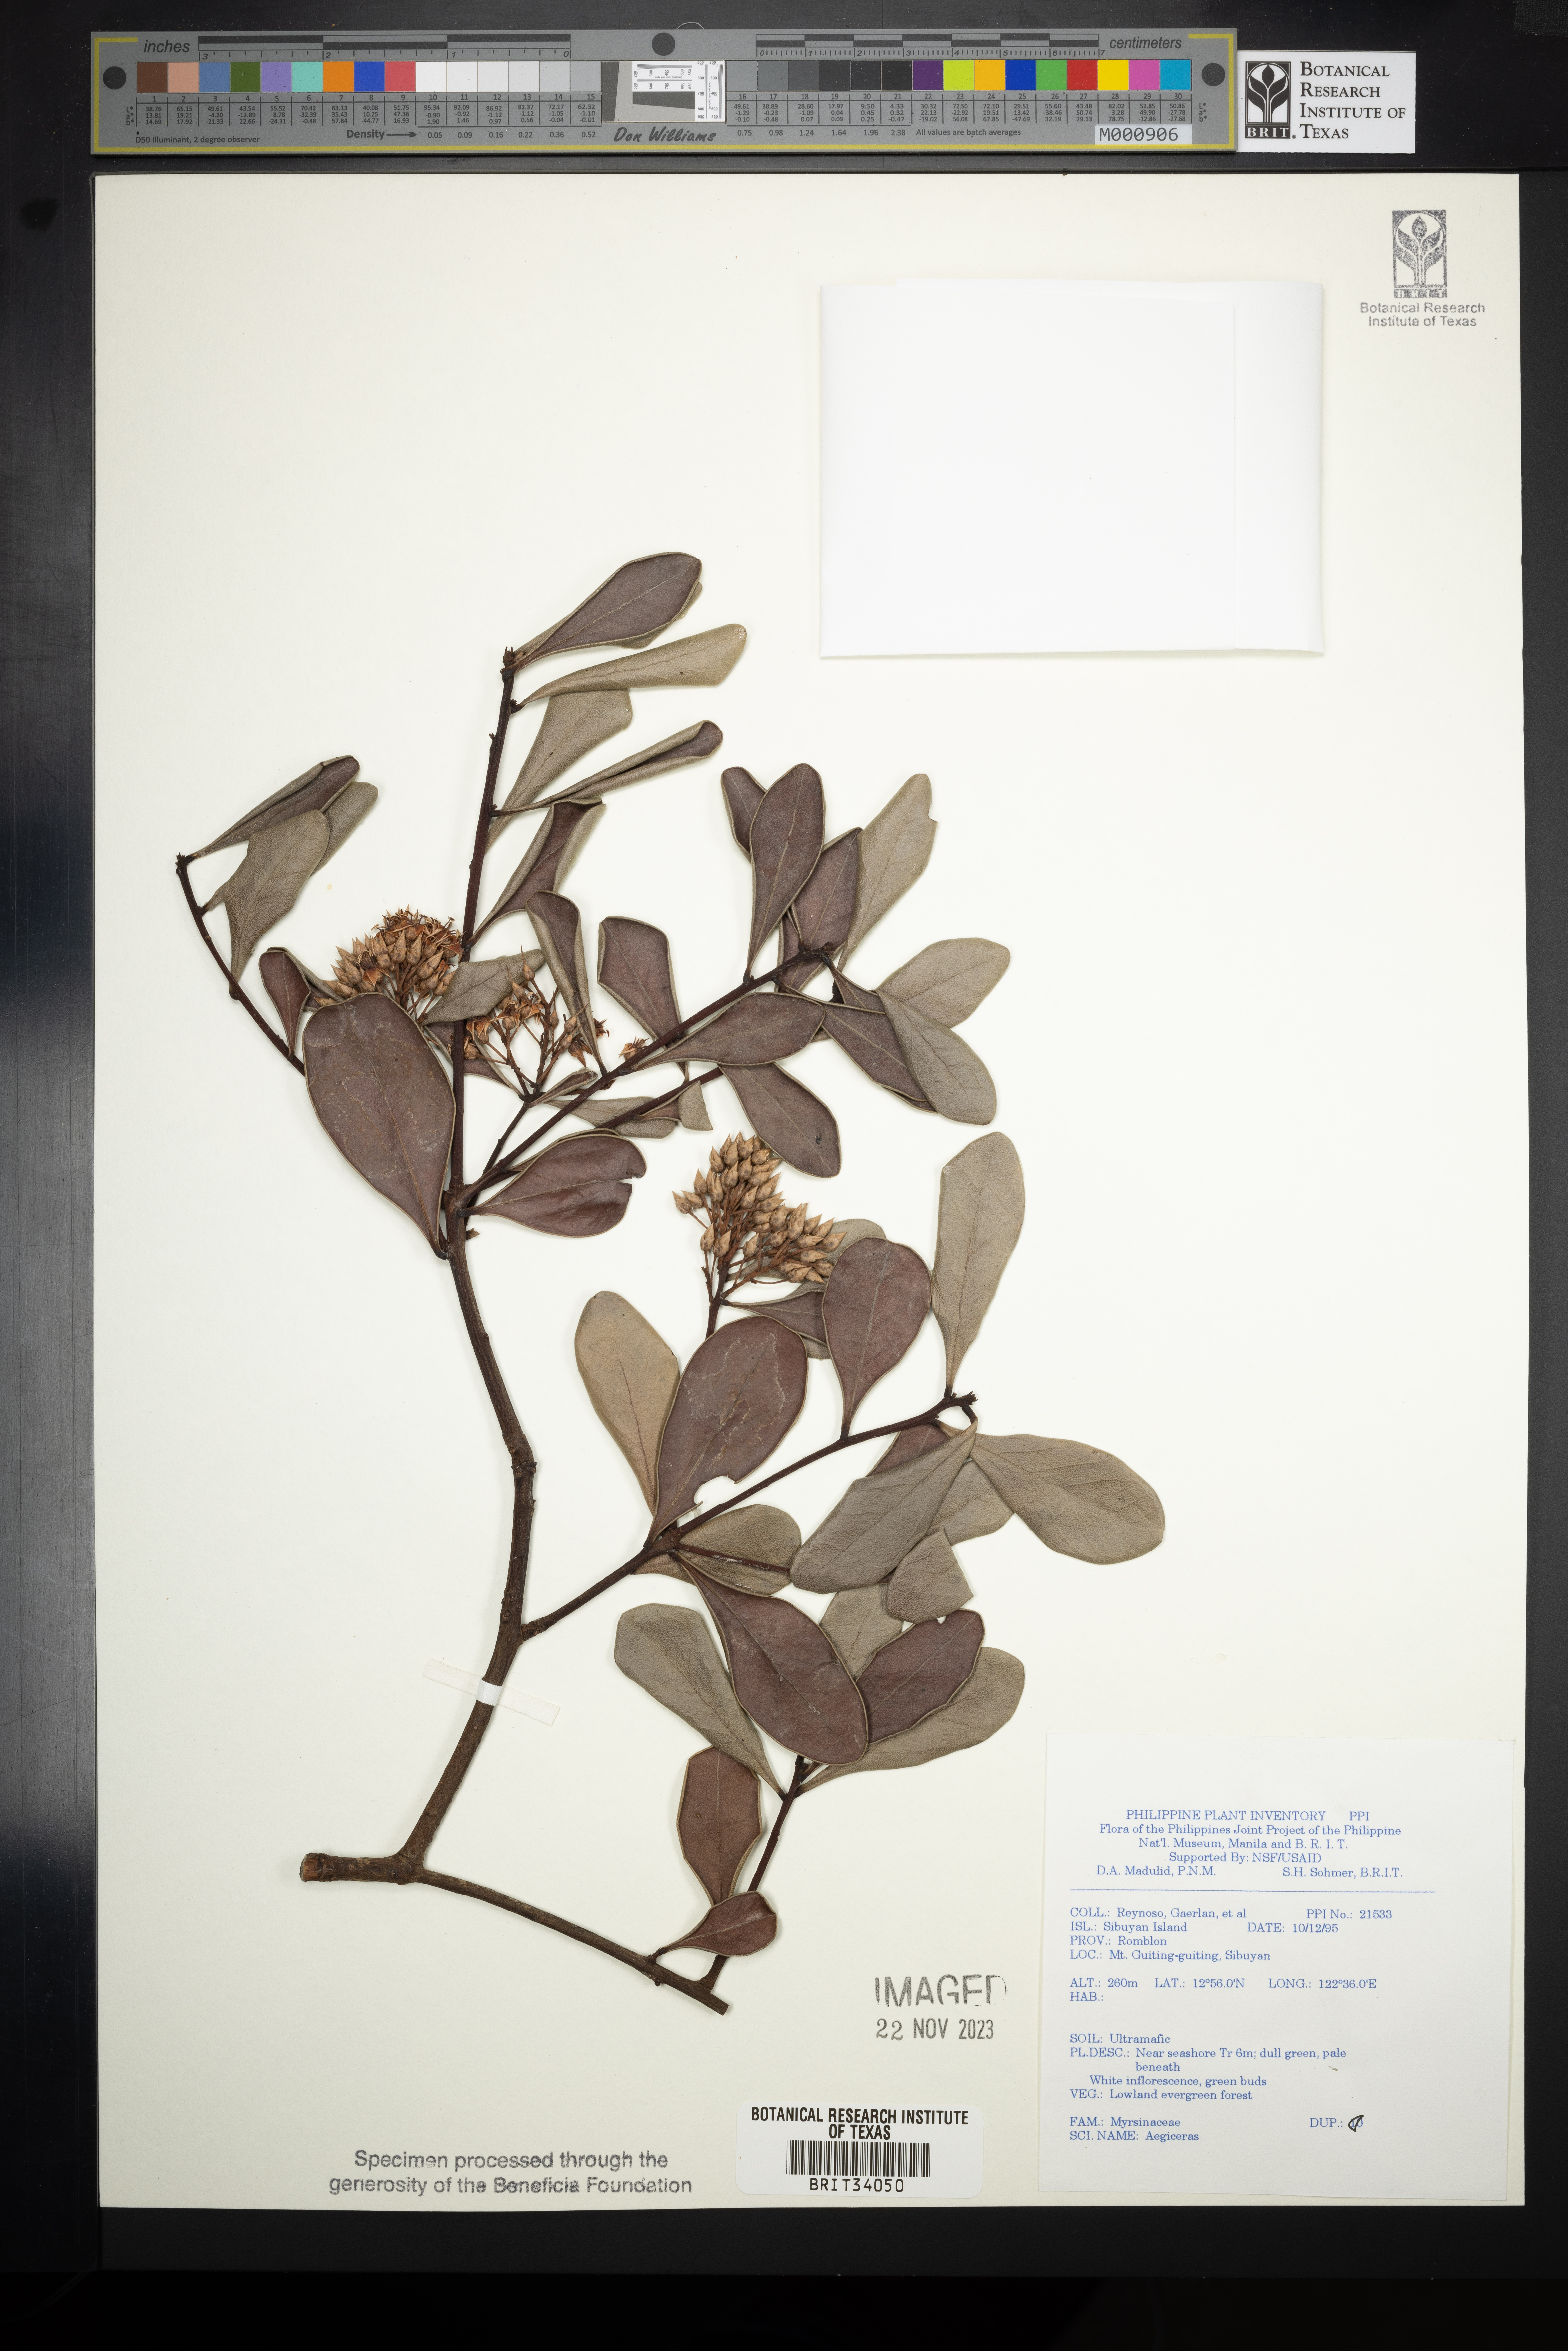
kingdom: Plantae
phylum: Tracheophyta
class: Magnoliopsida
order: Ericales
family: Primulaceae
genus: Aegiceras
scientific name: Aegiceras
